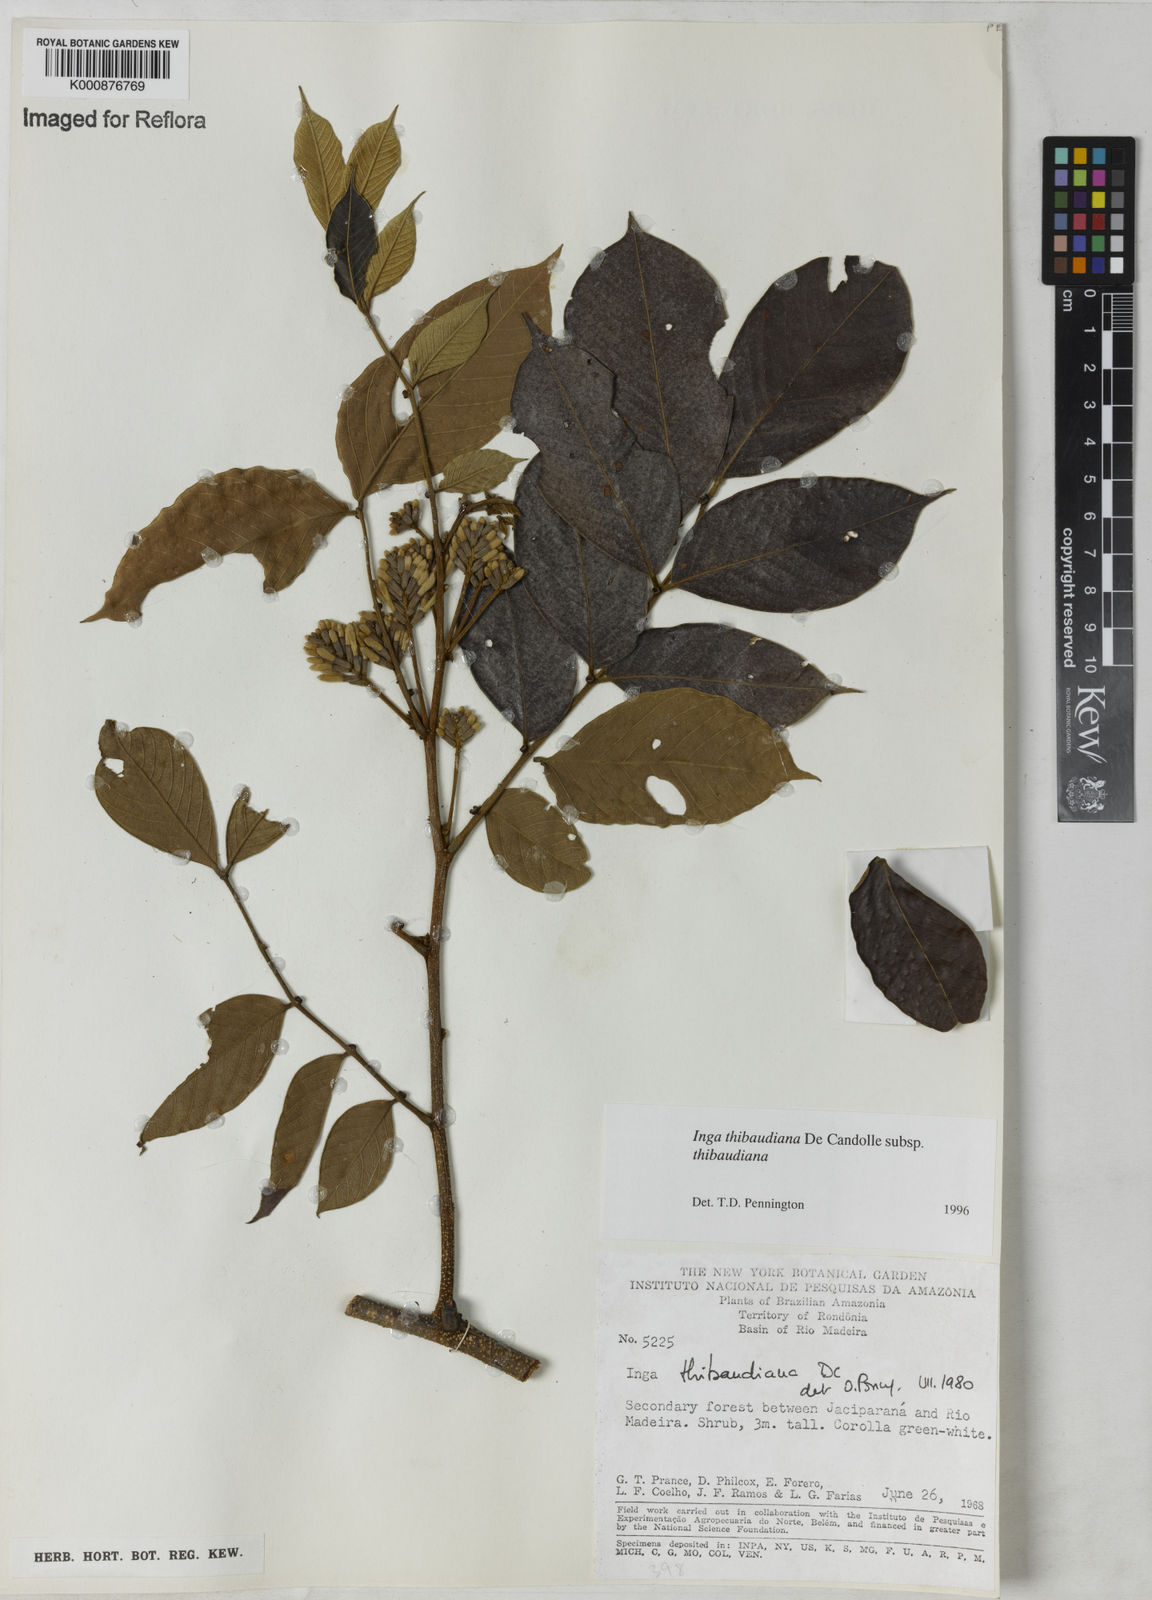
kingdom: Plantae
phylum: Tracheophyta
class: Magnoliopsida
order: Fabales
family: Fabaceae
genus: Inga
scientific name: Inga thibaudiana
